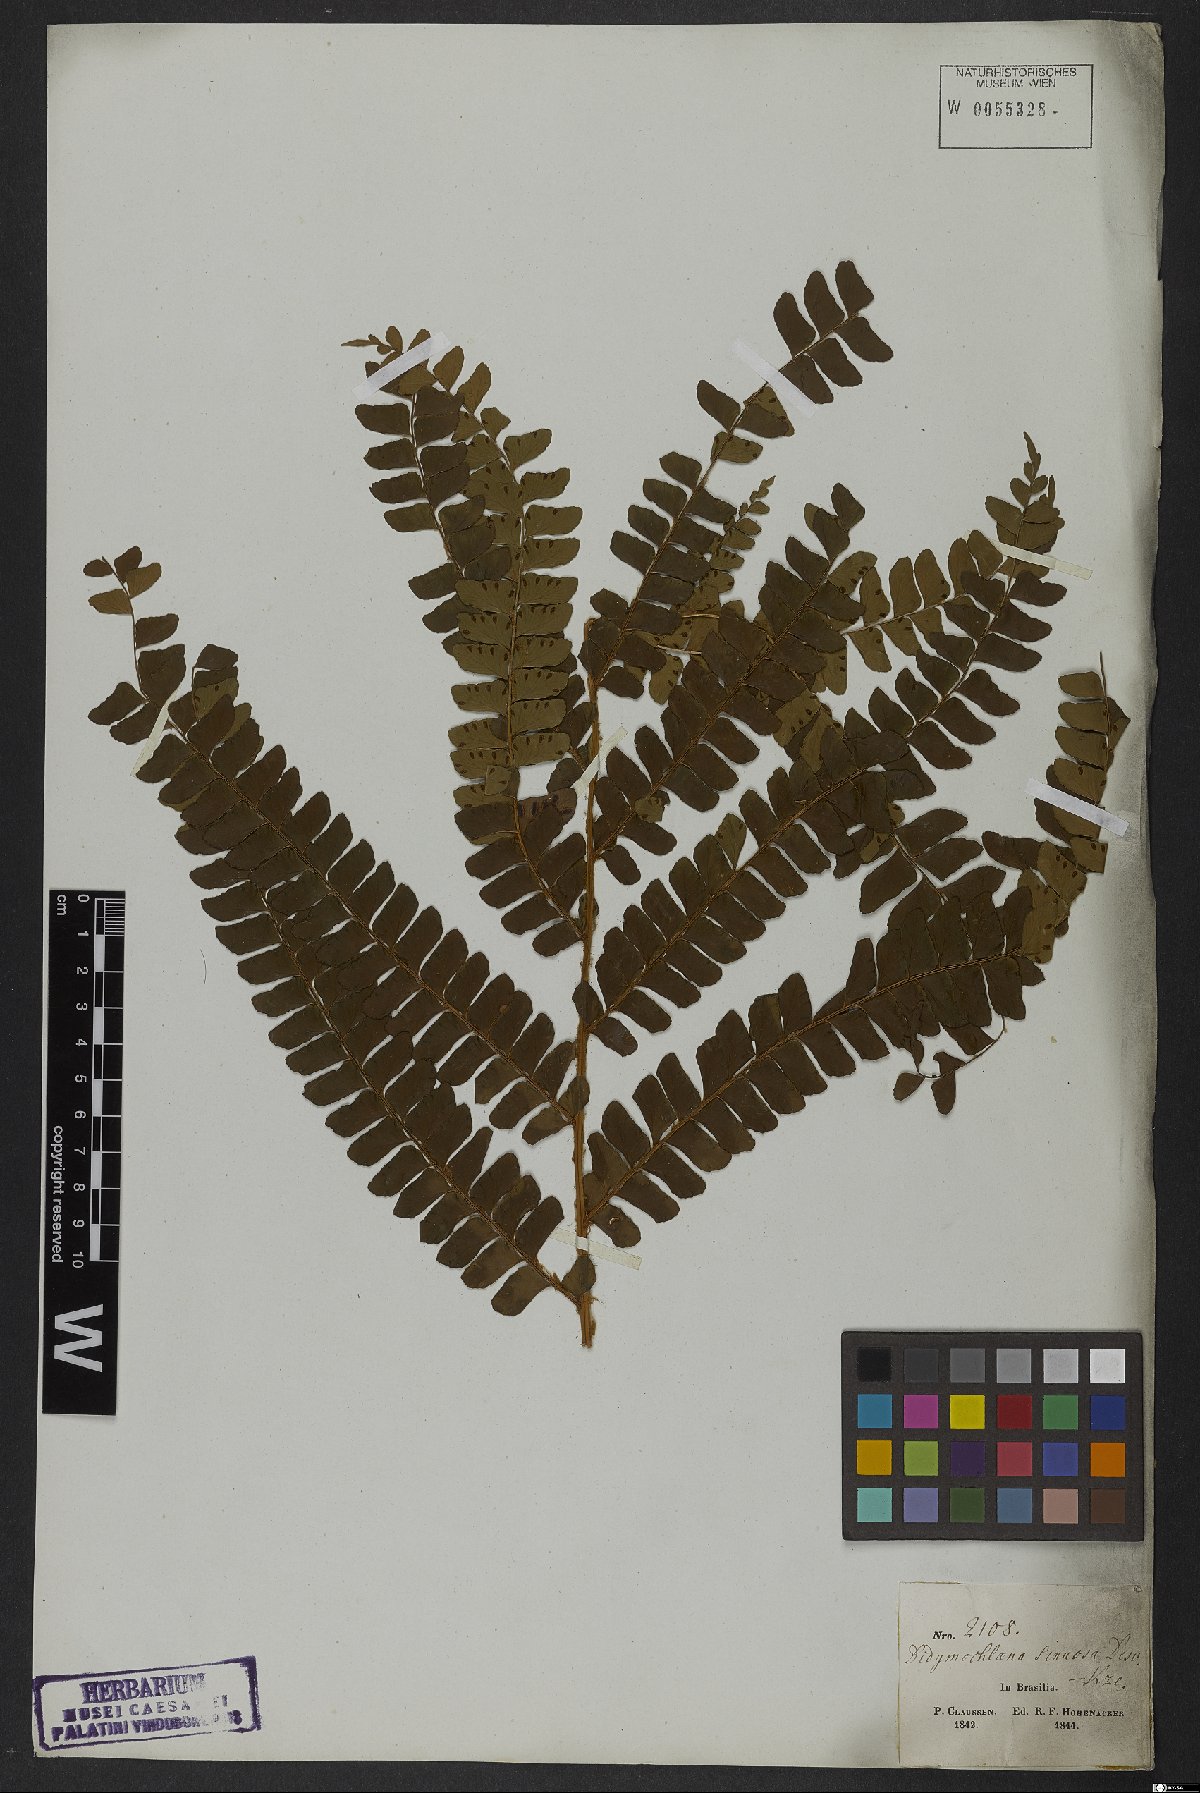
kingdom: Plantae
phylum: Tracheophyta
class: Polypodiopsida
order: Polypodiales
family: Didymochlaenaceae
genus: Didymochlaena
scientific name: Didymochlaena truncatula
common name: Mahogany fern
